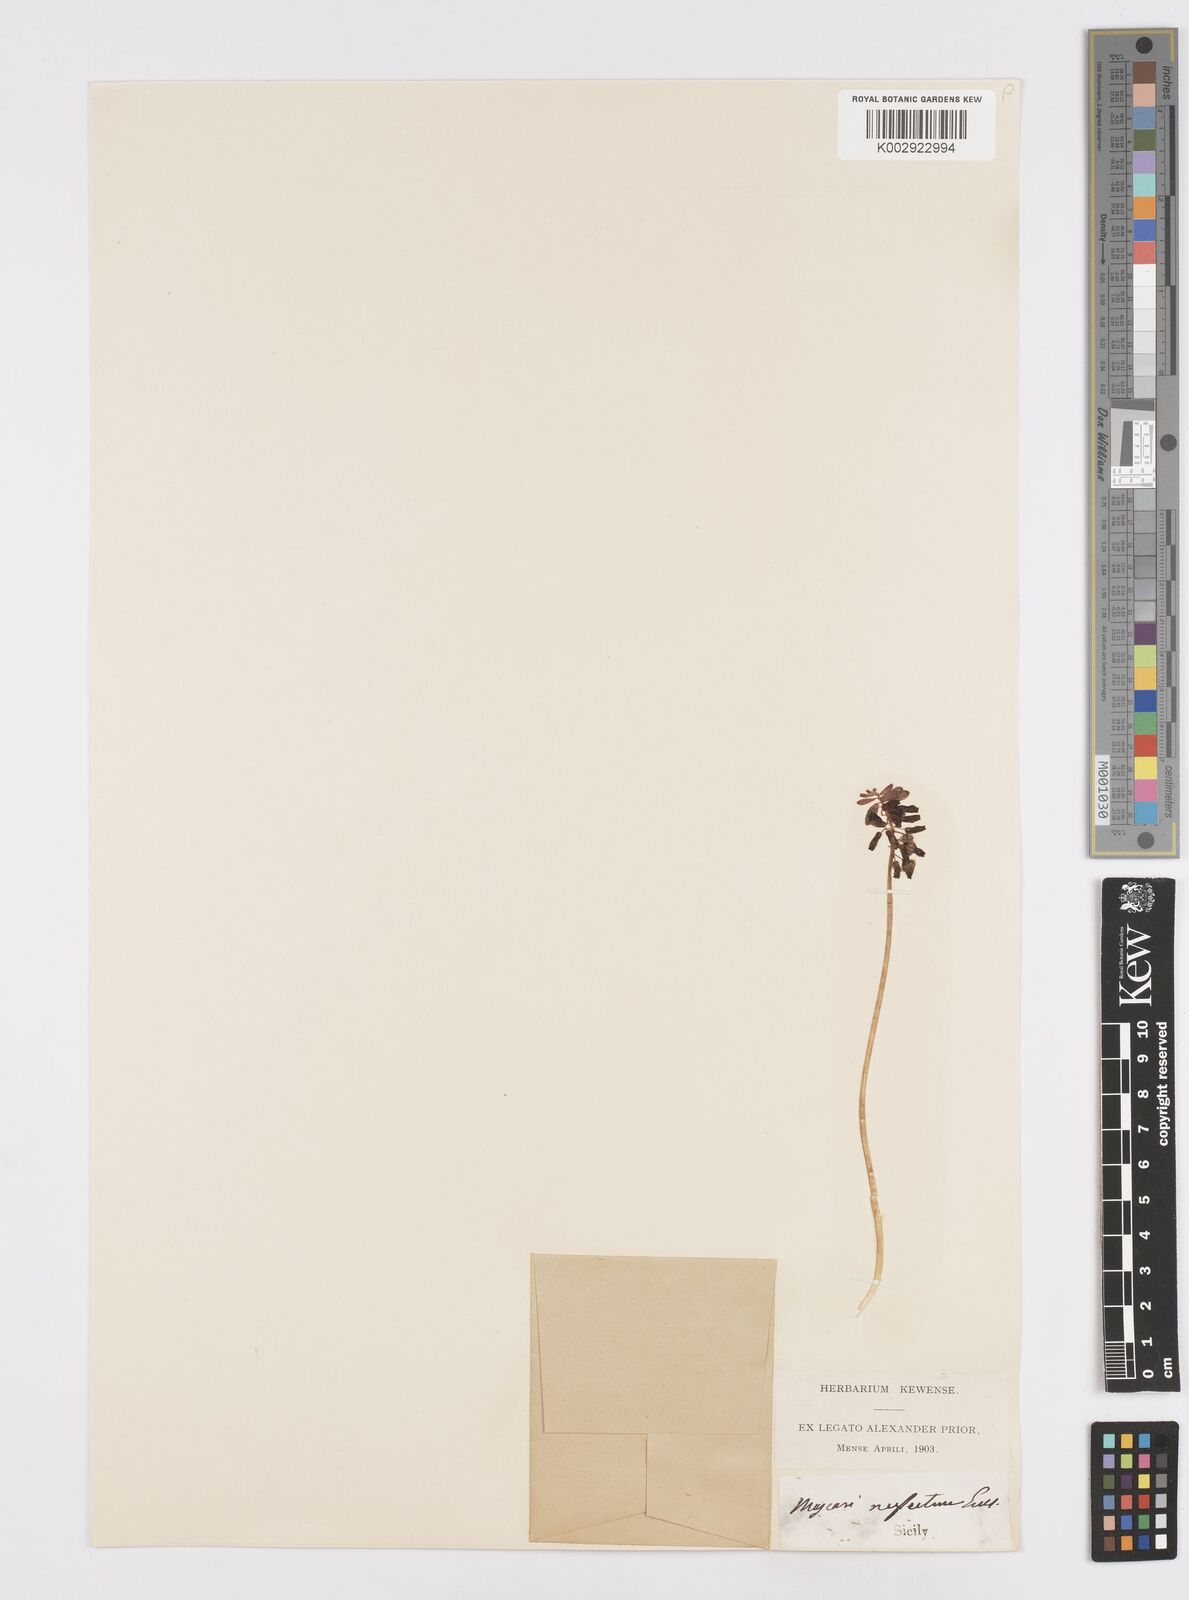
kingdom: Plantae
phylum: Tracheophyta
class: Liliopsida
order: Asparagales
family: Asparagaceae
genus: Muscari
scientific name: Muscari neglectum
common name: Grape-hyacinth
